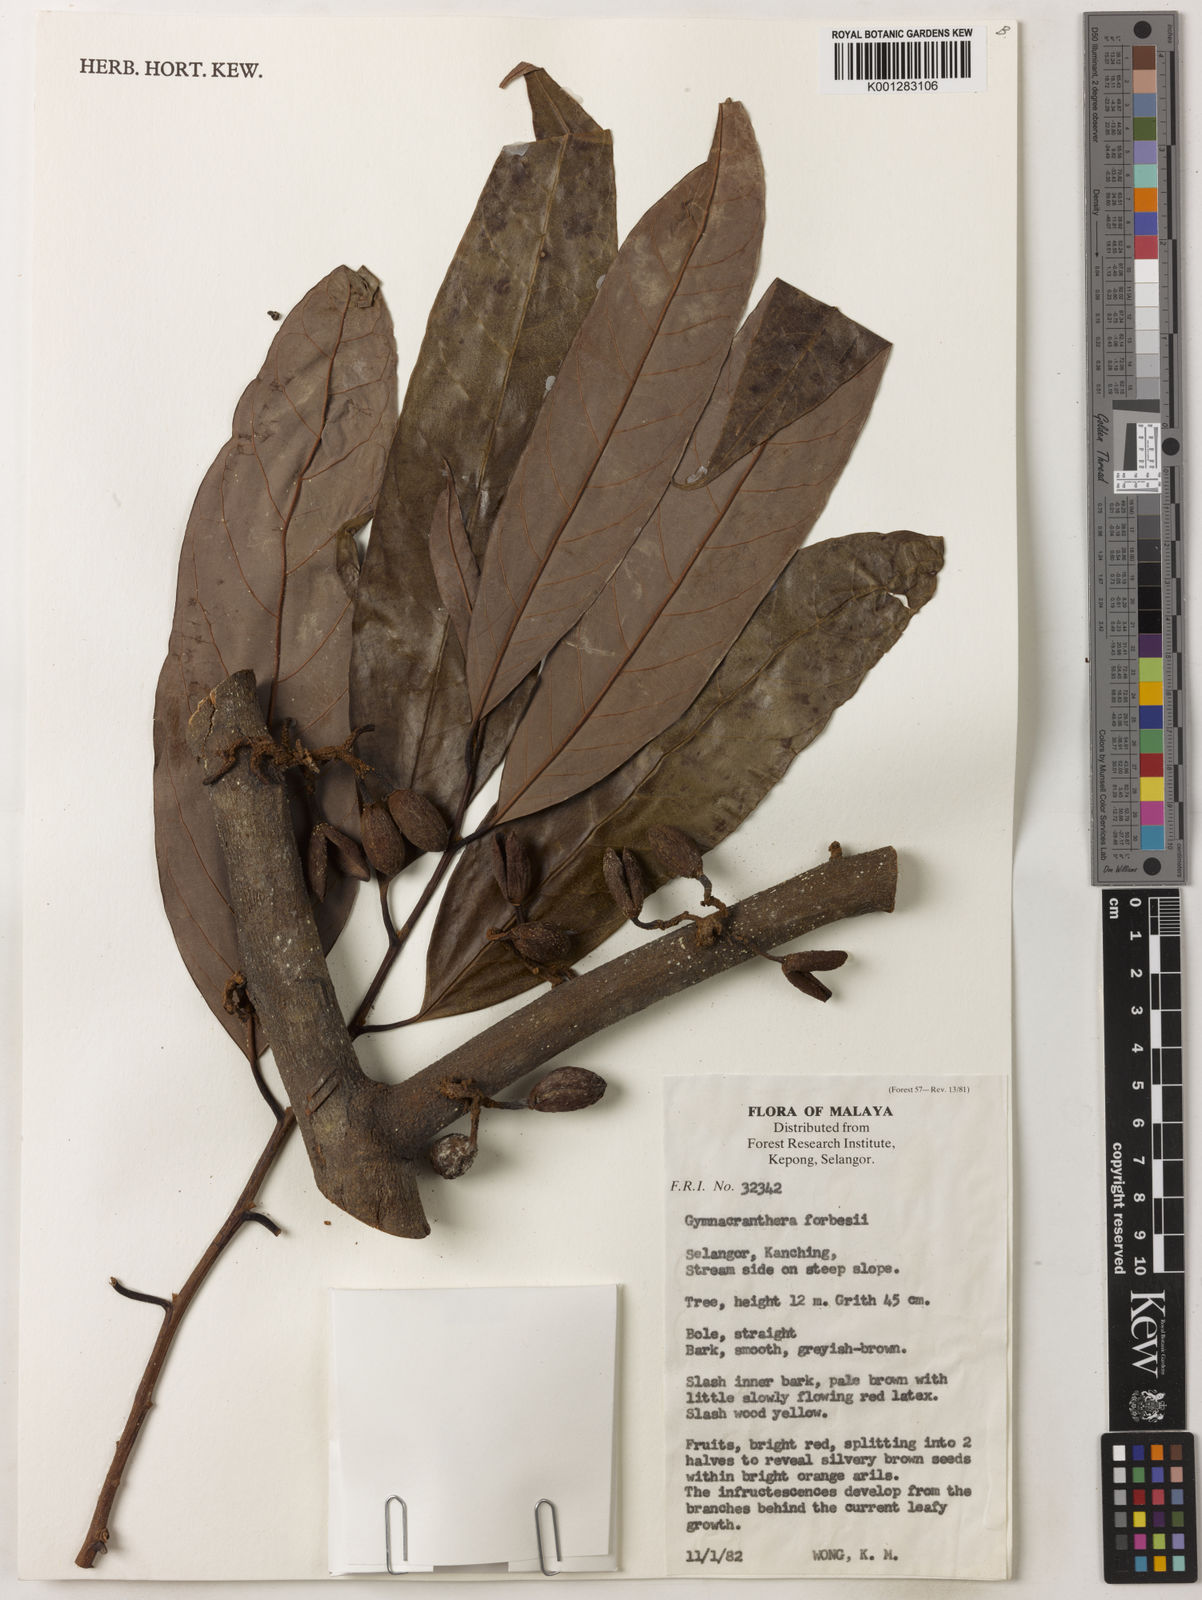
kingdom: Plantae
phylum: Tracheophyta
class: Magnoliopsida
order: Magnoliales
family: Myristicaceae
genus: Gymnacranthera
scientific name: Gymnacranthera forbesii
